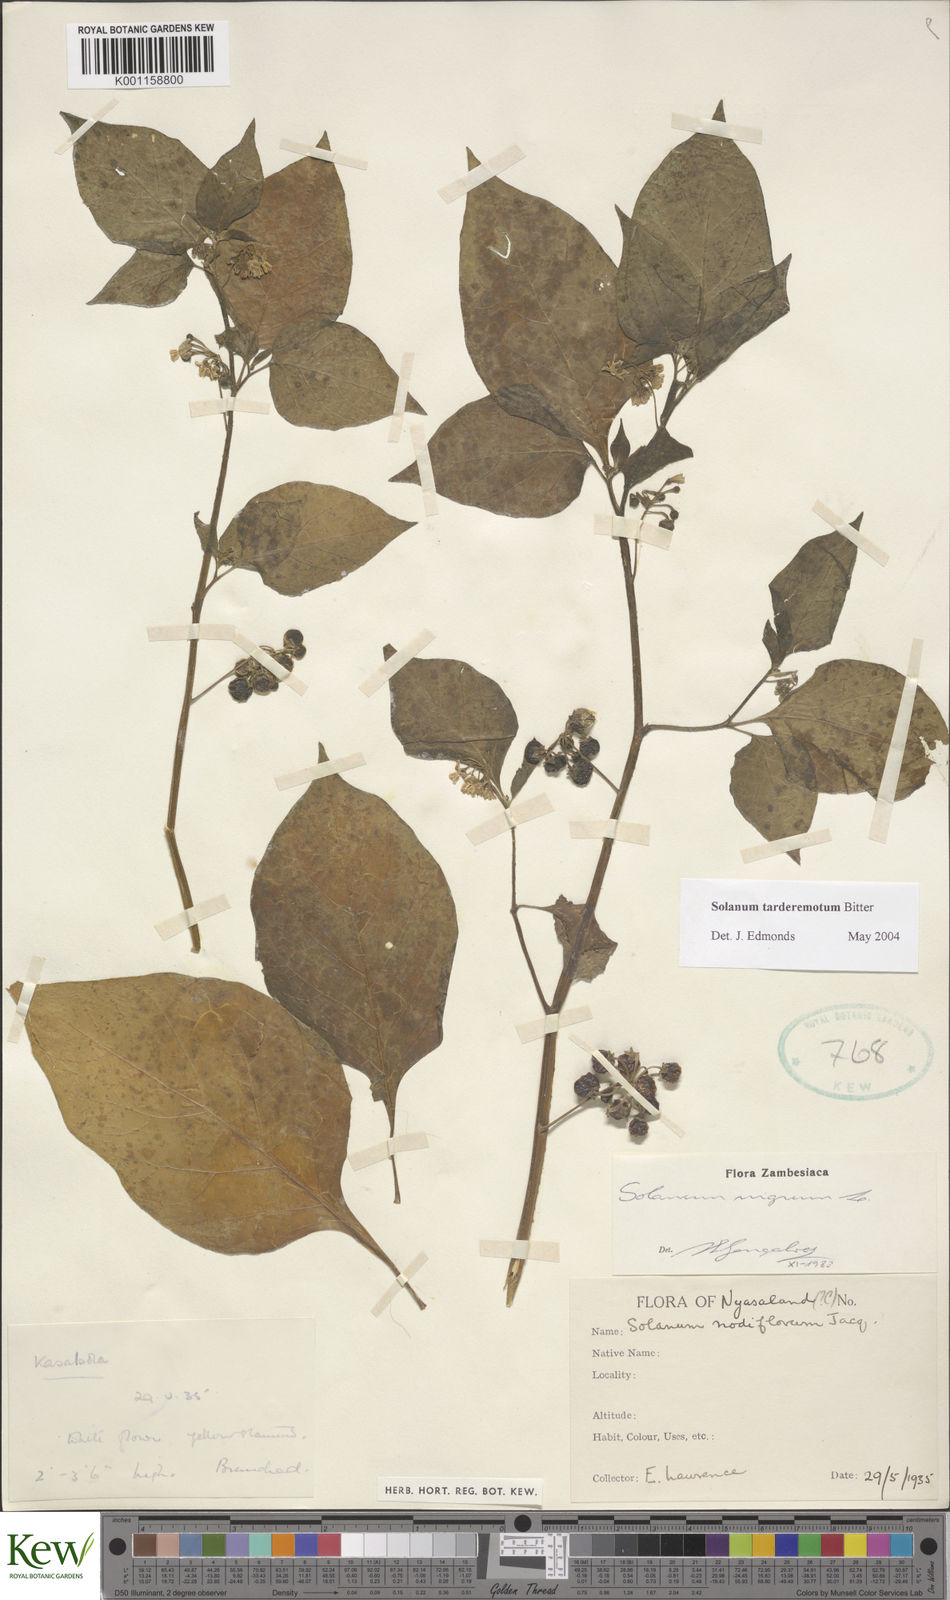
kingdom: Plantae
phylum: Tracheophyta
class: Magnoliopsida
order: Solanales
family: Solanaceae
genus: Solanum
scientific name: Solanum tarderemotum
